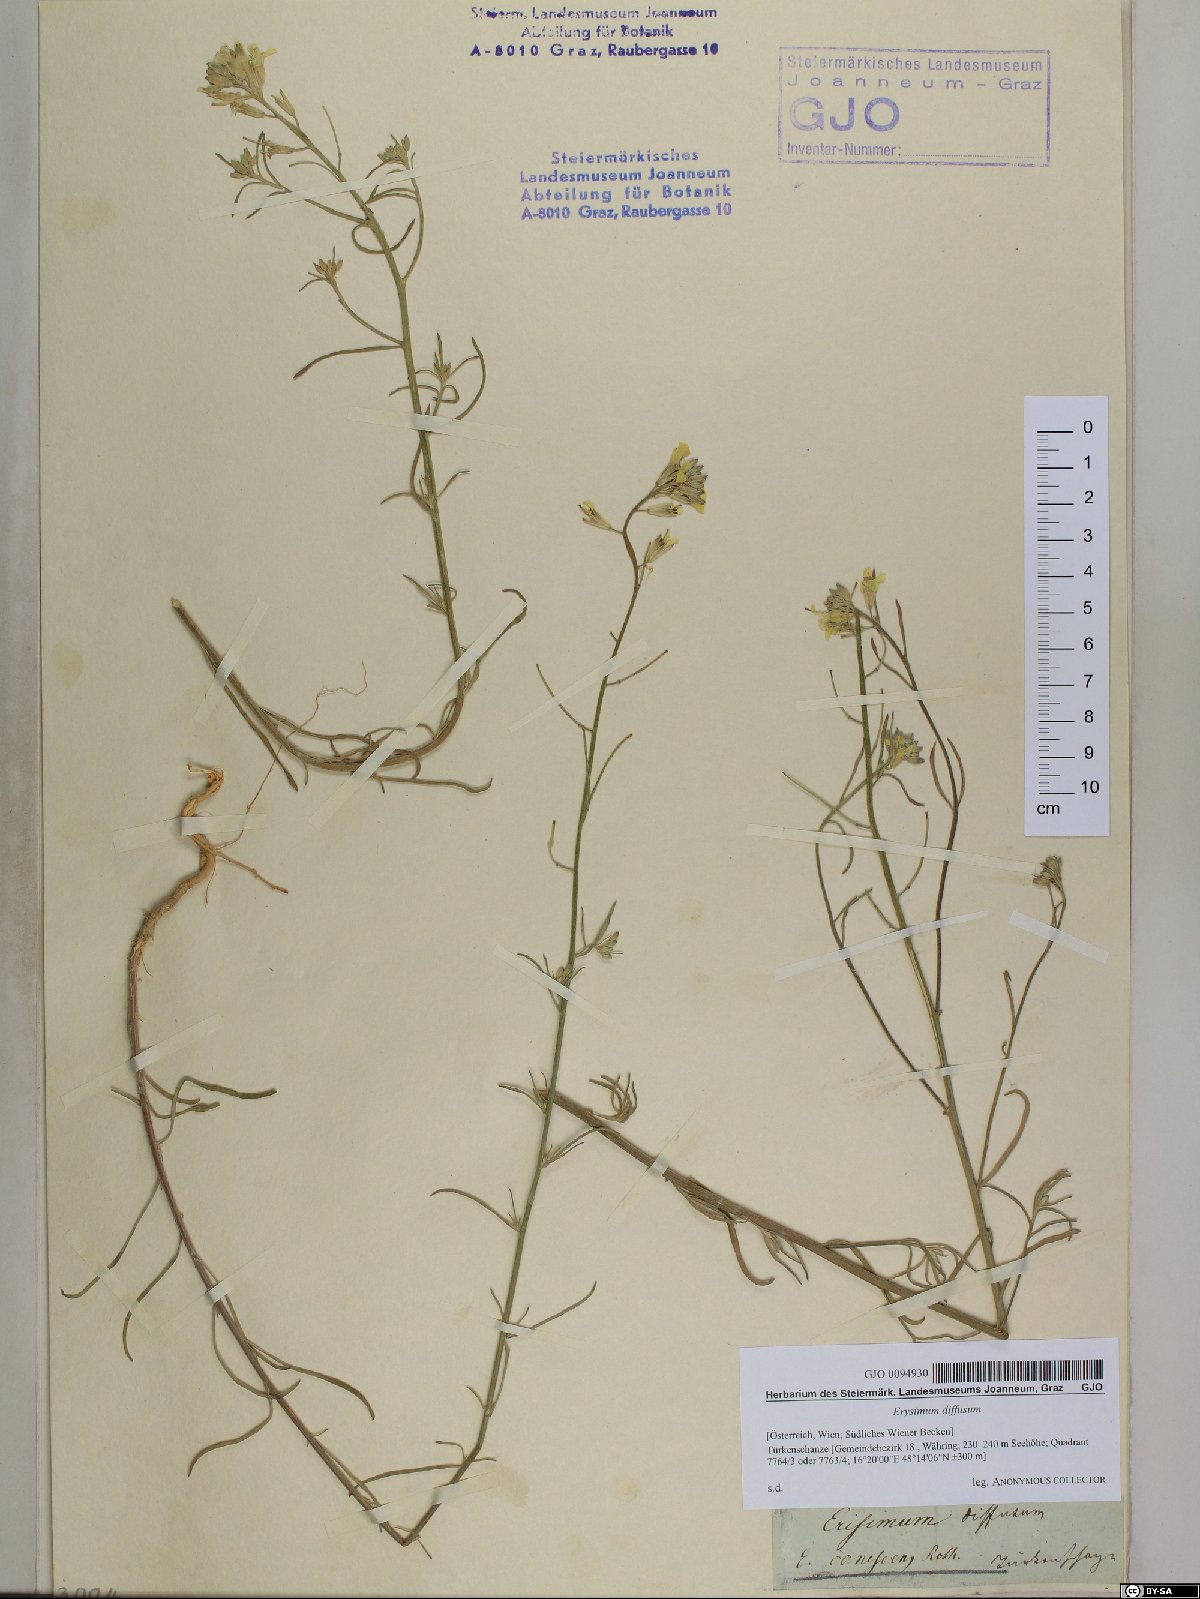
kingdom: Plantae
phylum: Tracheophyta
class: Magnoliopsida
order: Brassicales
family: Brassicaceae
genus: Erysimum
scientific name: Erysimum diffusum
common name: Diffuse wallflower
